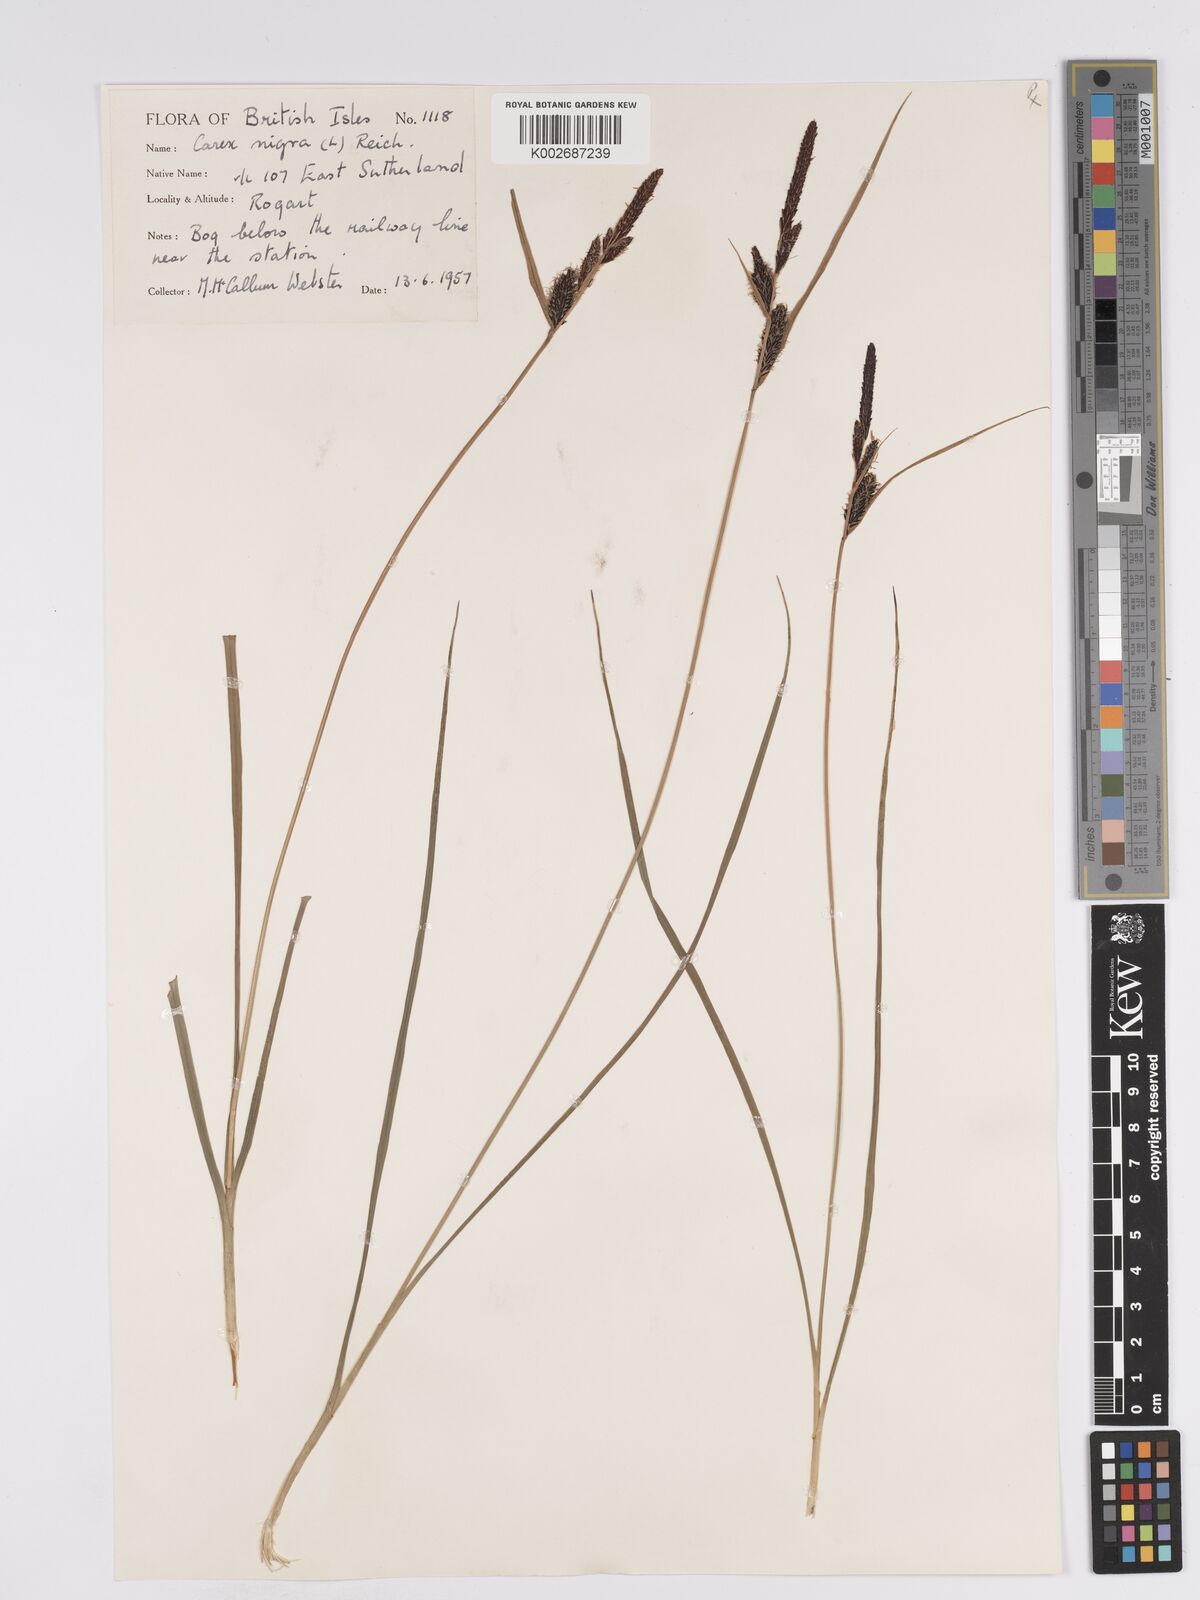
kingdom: Plantae
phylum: Tracheophyta
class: Liliopsida
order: Poales
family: Cyperaceae
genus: Carex
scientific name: Carex nigra
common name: Common sedge
